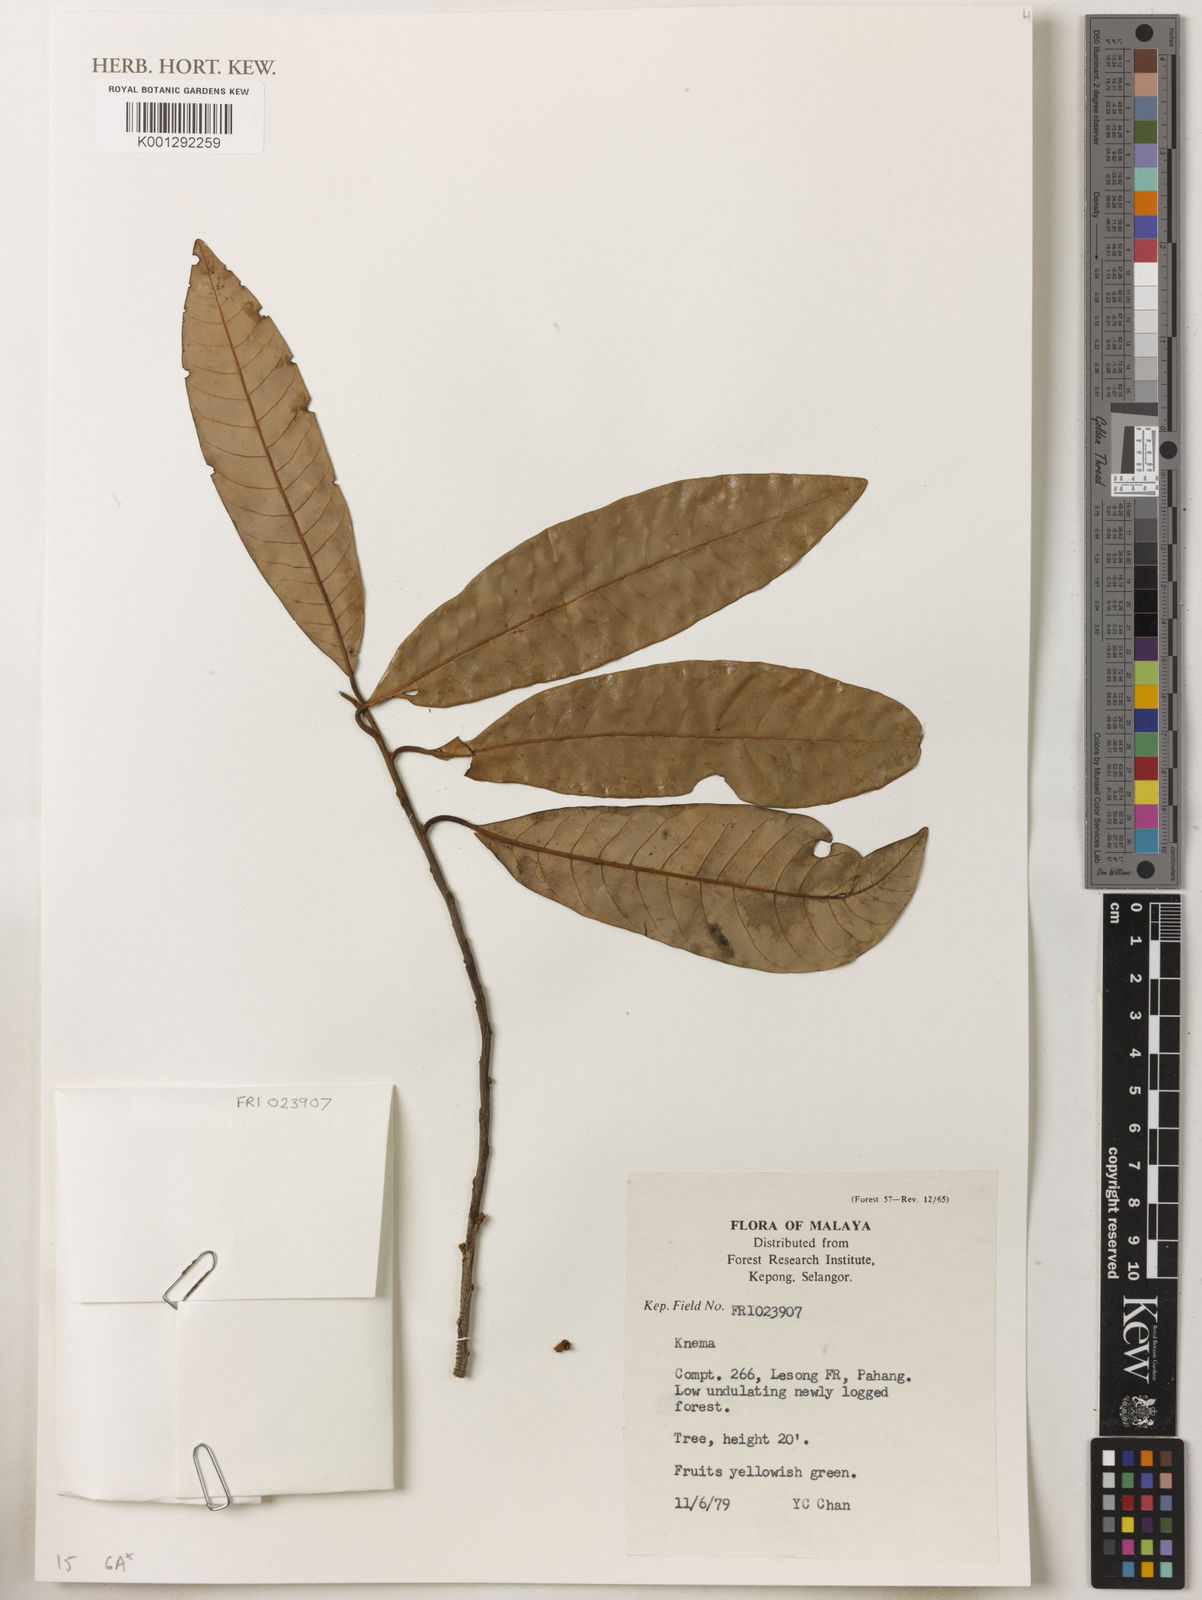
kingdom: Plantae
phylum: Tracheophyta
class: Magnoliopsida
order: Magnoliales
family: Myristicaceae
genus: Knema
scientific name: Knema
